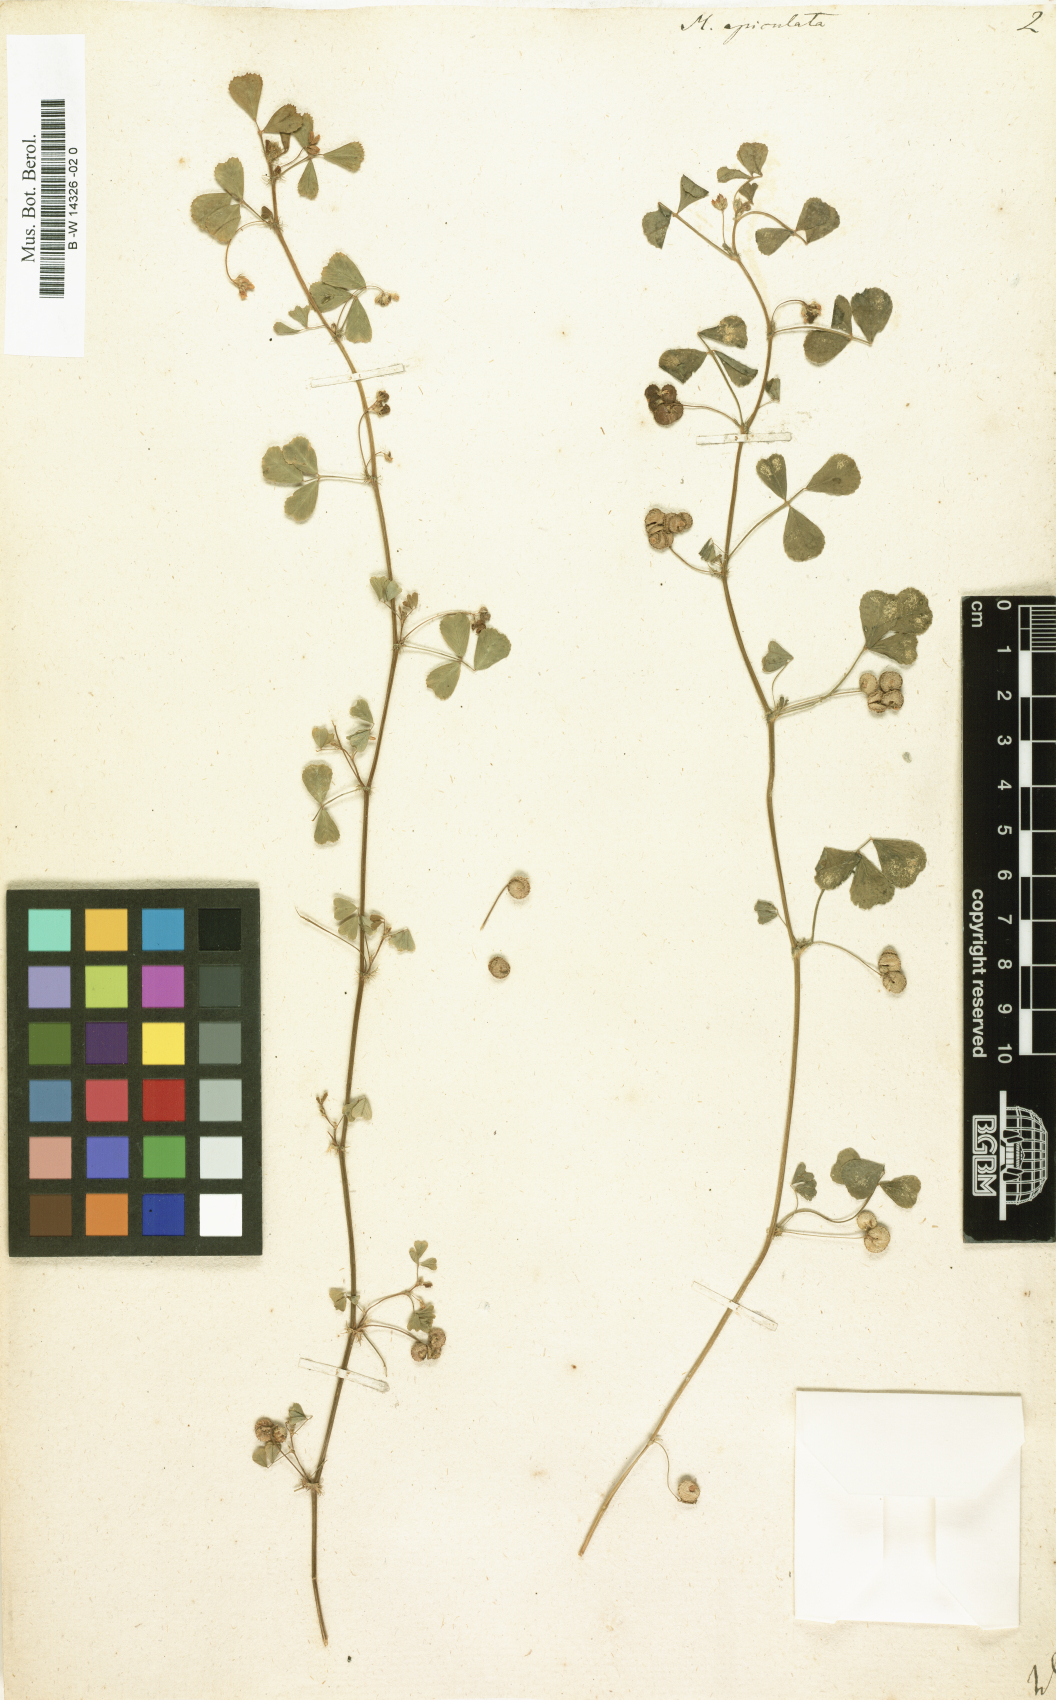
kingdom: Plantae
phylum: Tracheophyta
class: Magnoliopsida
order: Fabales
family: Fabaceae
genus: Medicago
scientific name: Medicago polymorpha
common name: Burclover
